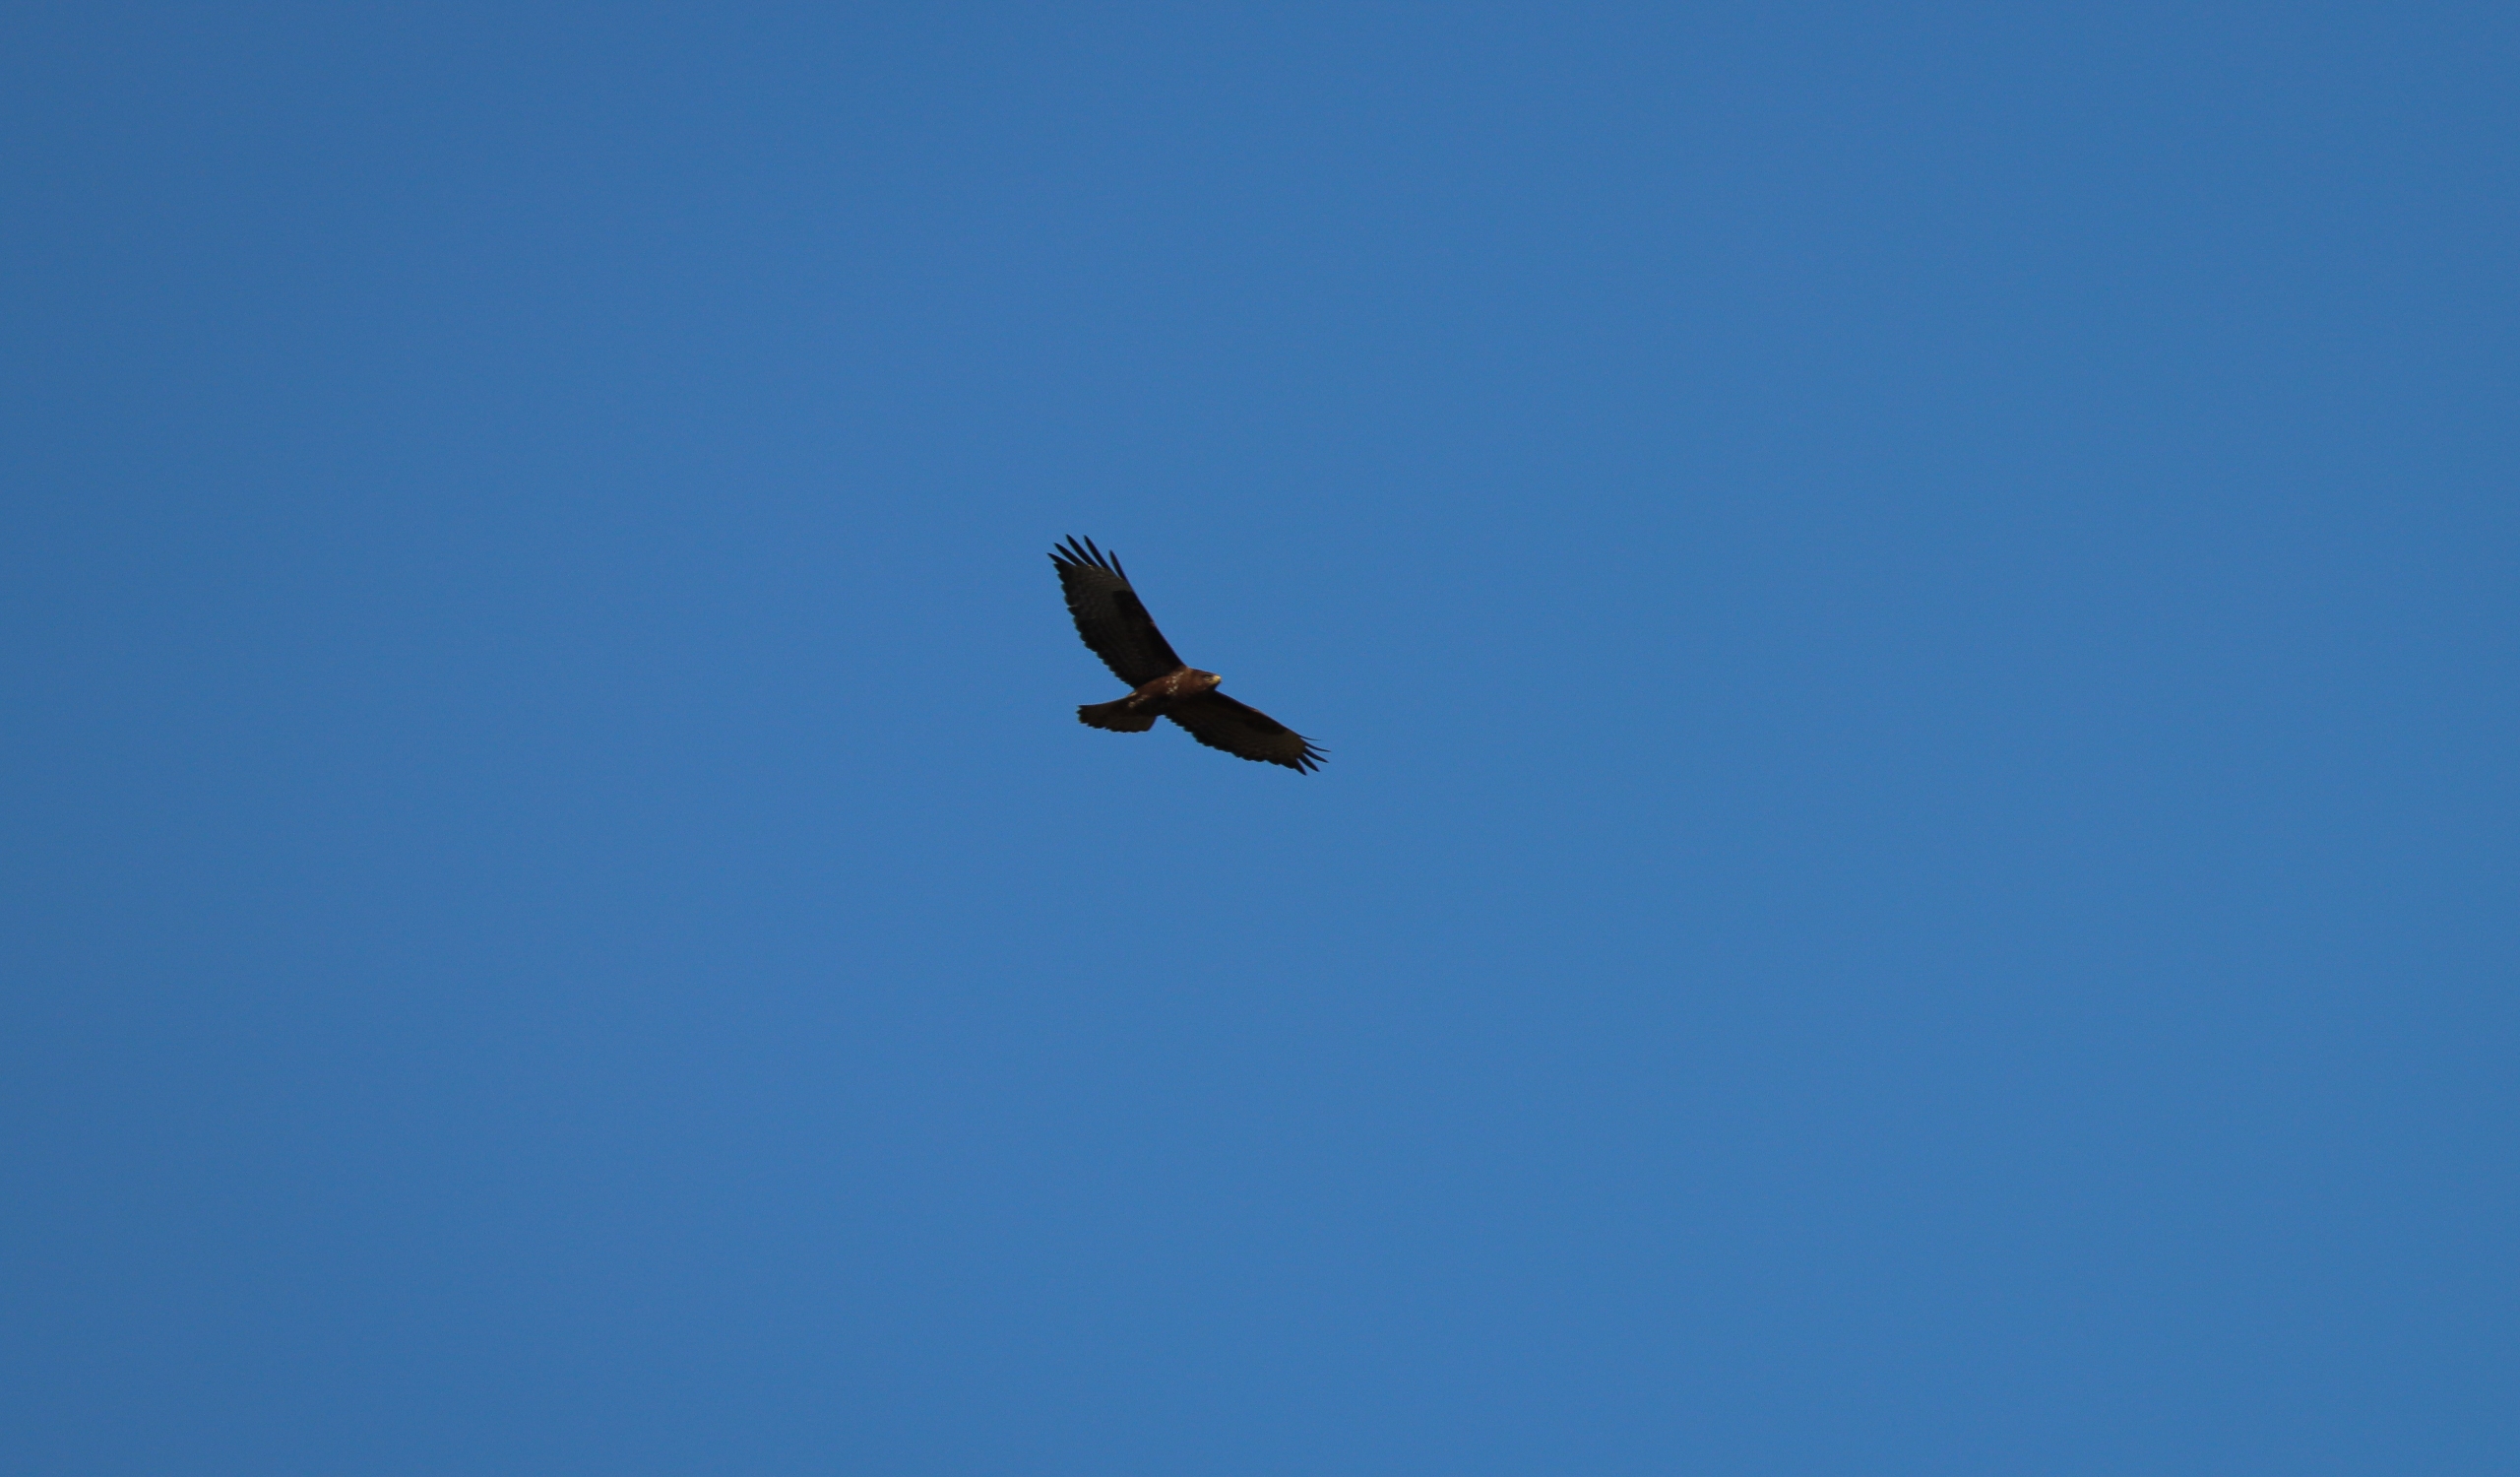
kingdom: Animalia
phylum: Chordata
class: Aves
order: Accipitriformes
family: Accipitridae
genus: Buteo
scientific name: Buteo buteo
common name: Musvåge
